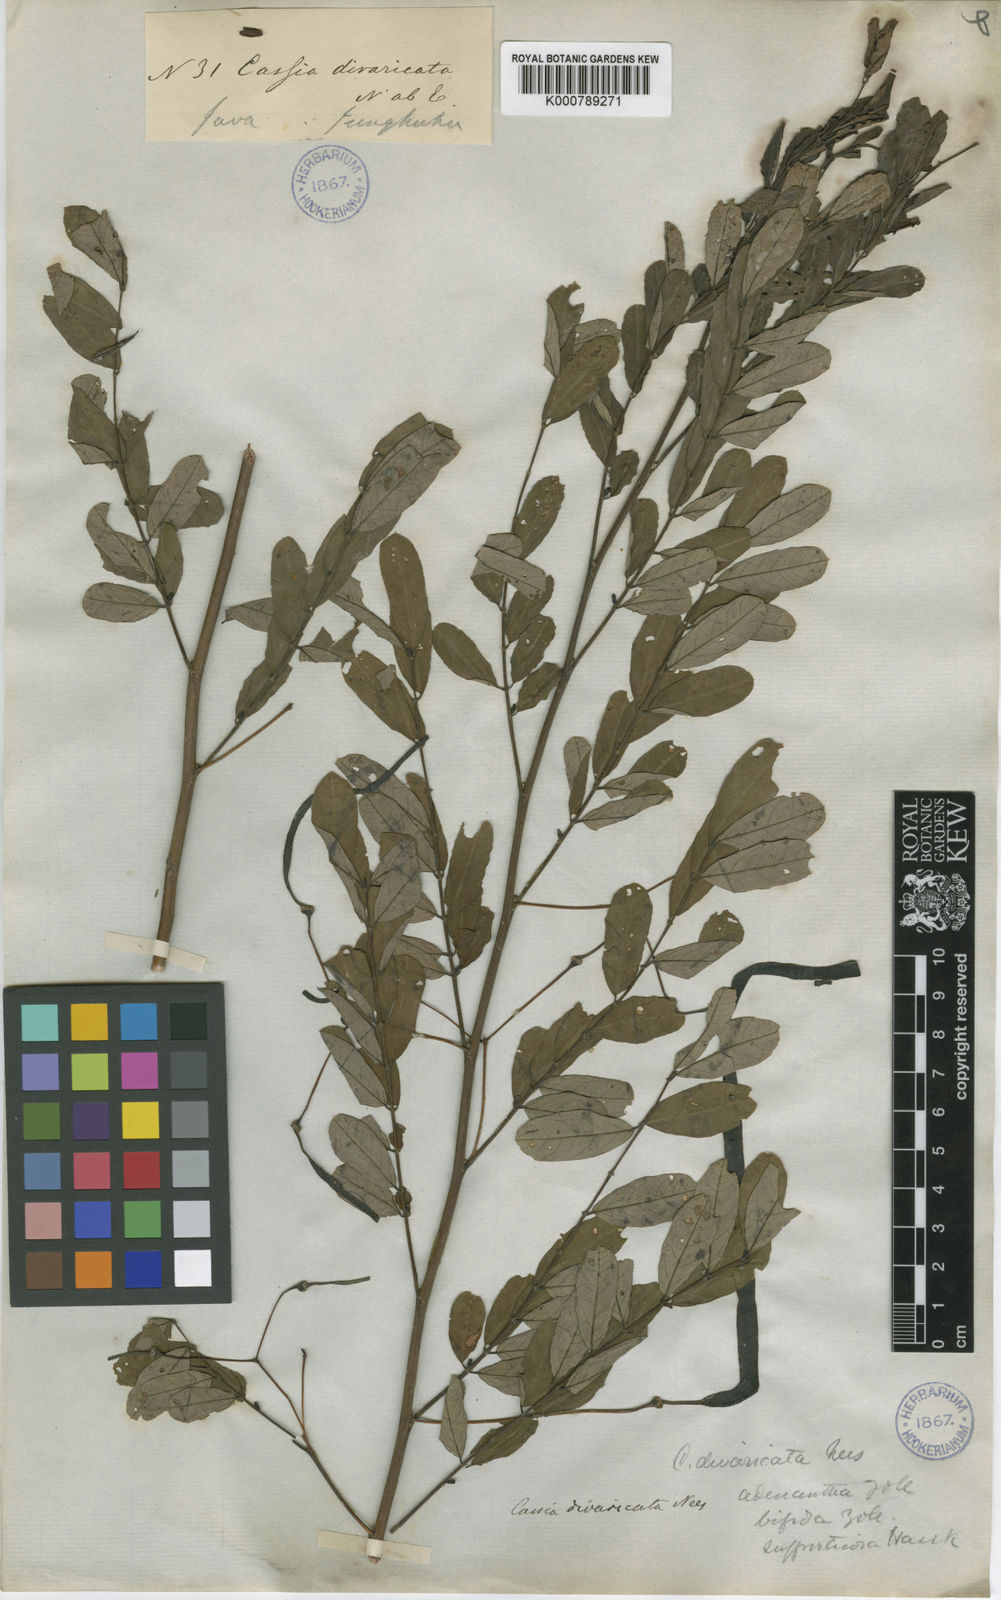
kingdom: Plantae
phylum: Tracheophyta
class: Magnoliopsida
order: Fabales
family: Fabaceae
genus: Senna
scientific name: Senna divaricata
